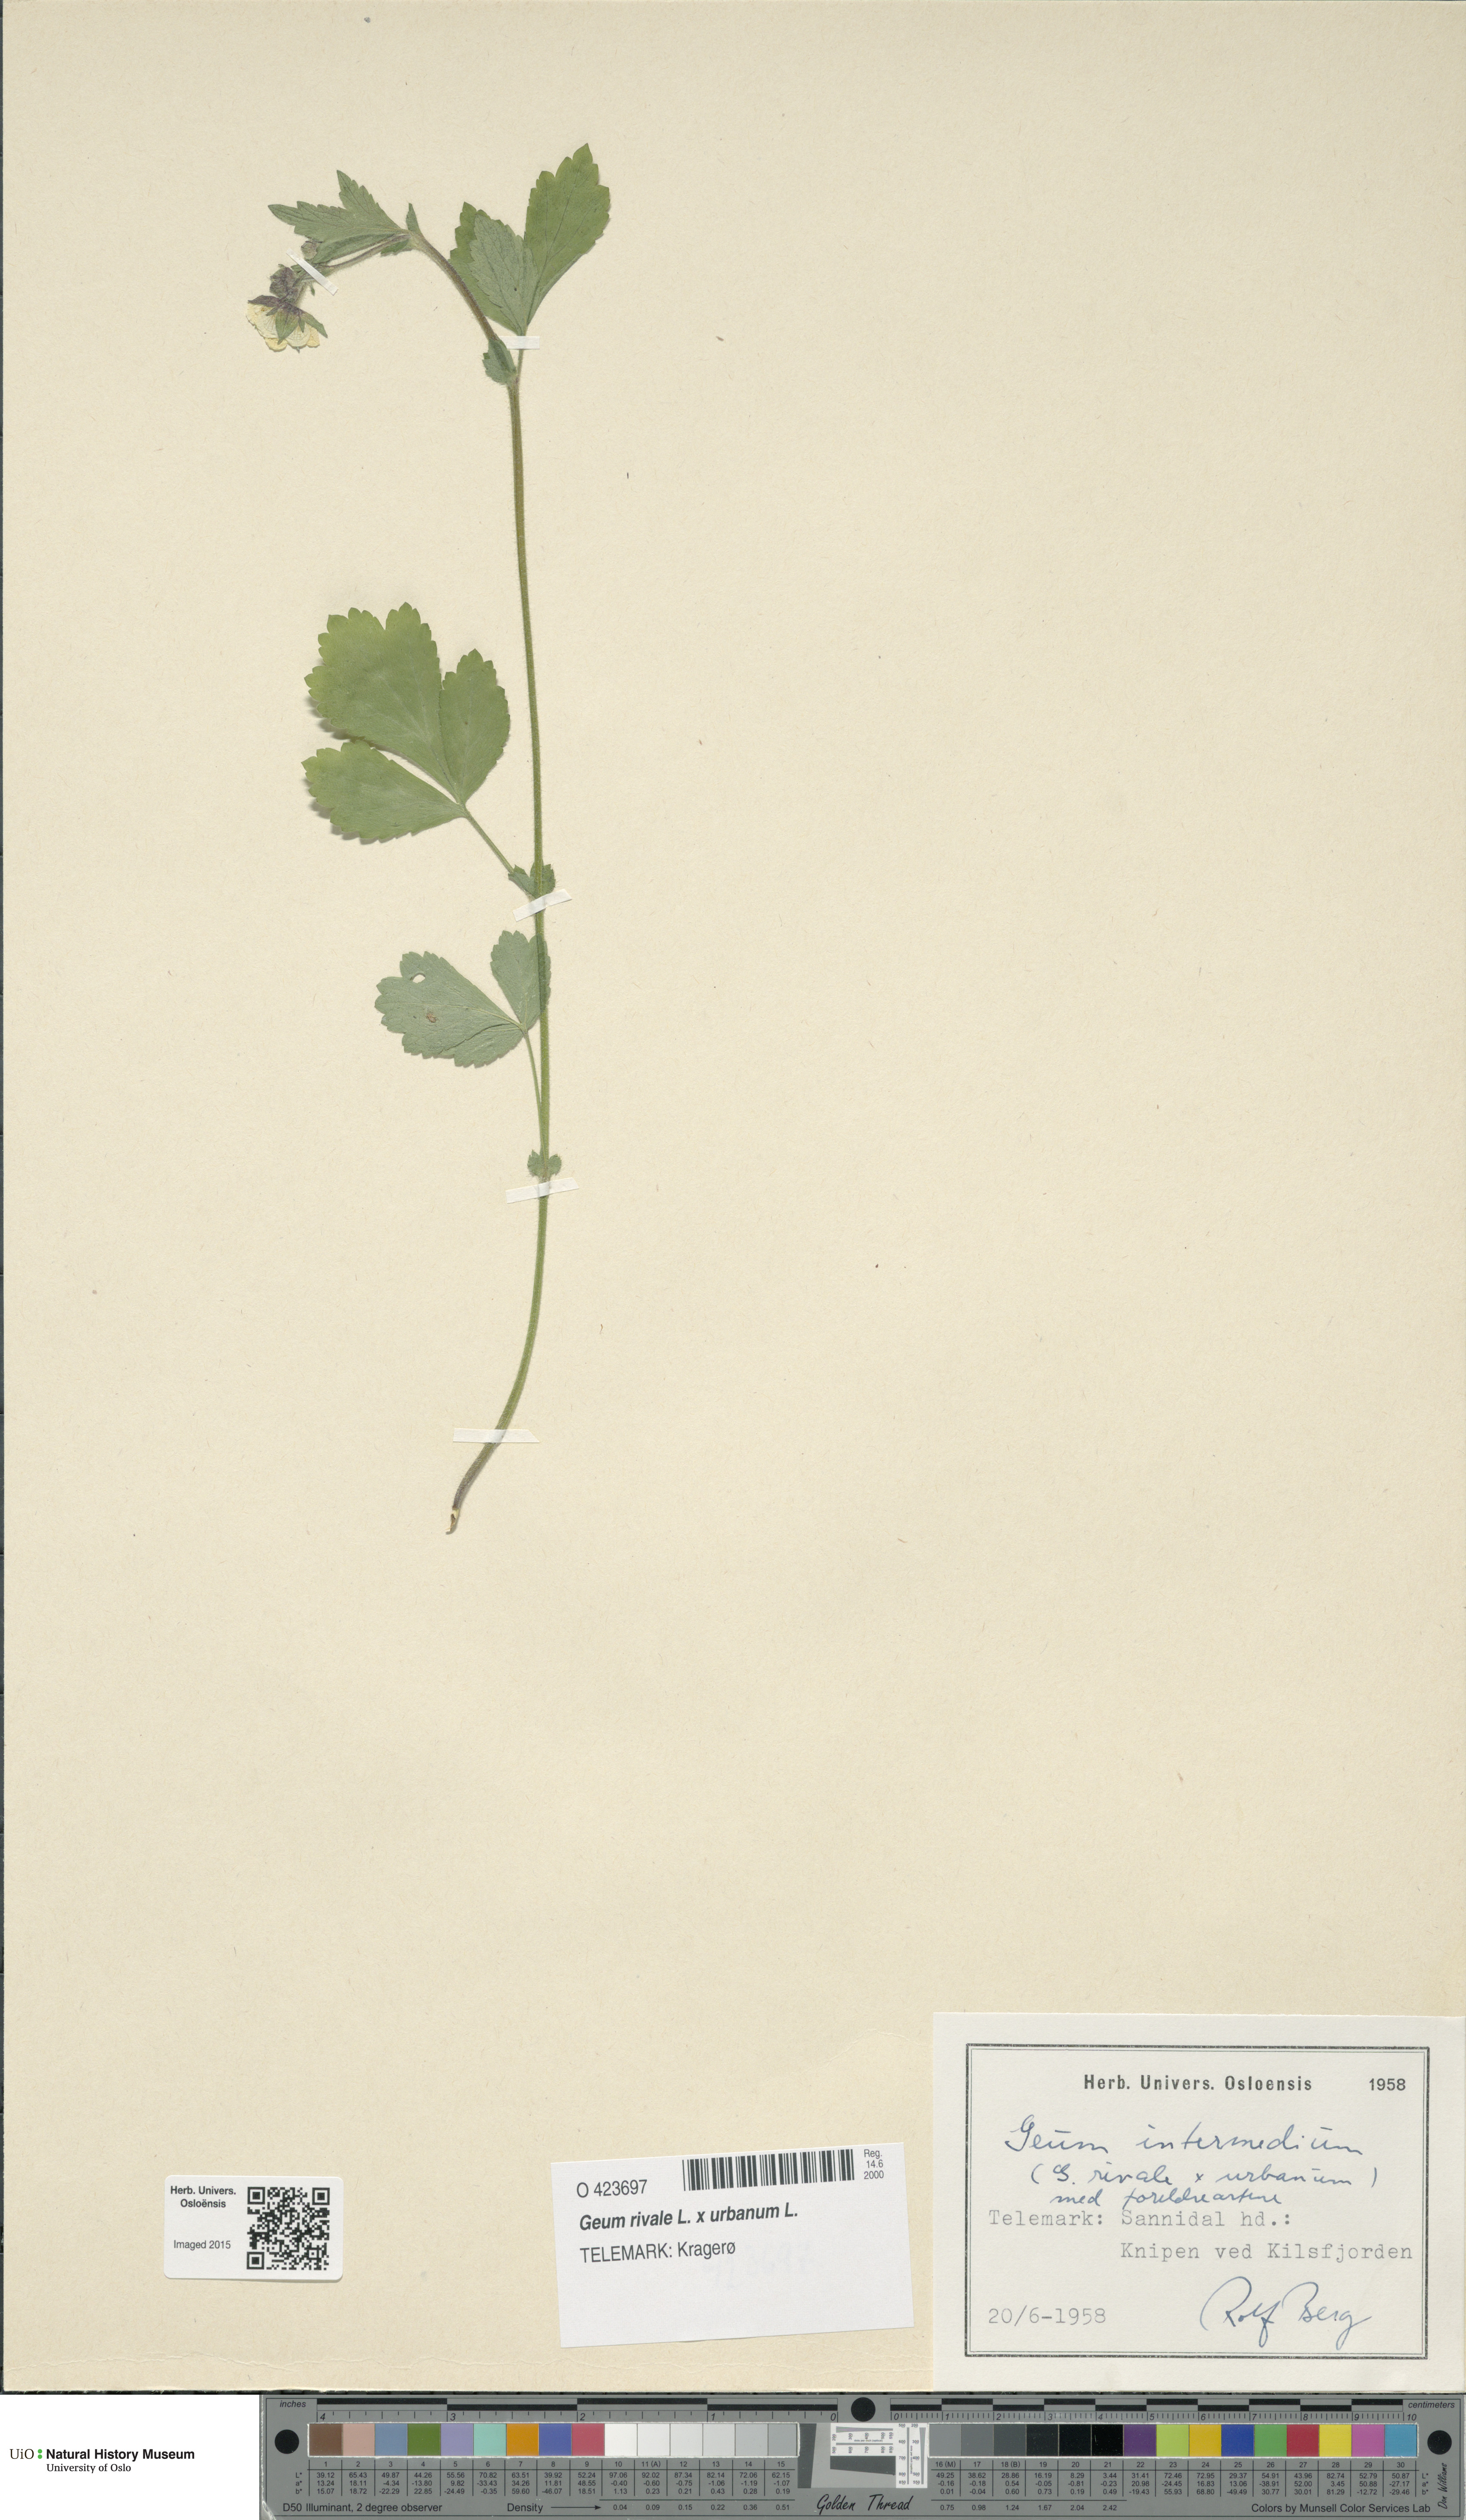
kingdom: Plantae
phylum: Tracheophyta
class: Magnoliopsida
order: Rosales
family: Rosaceae
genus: Geum
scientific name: Geum
